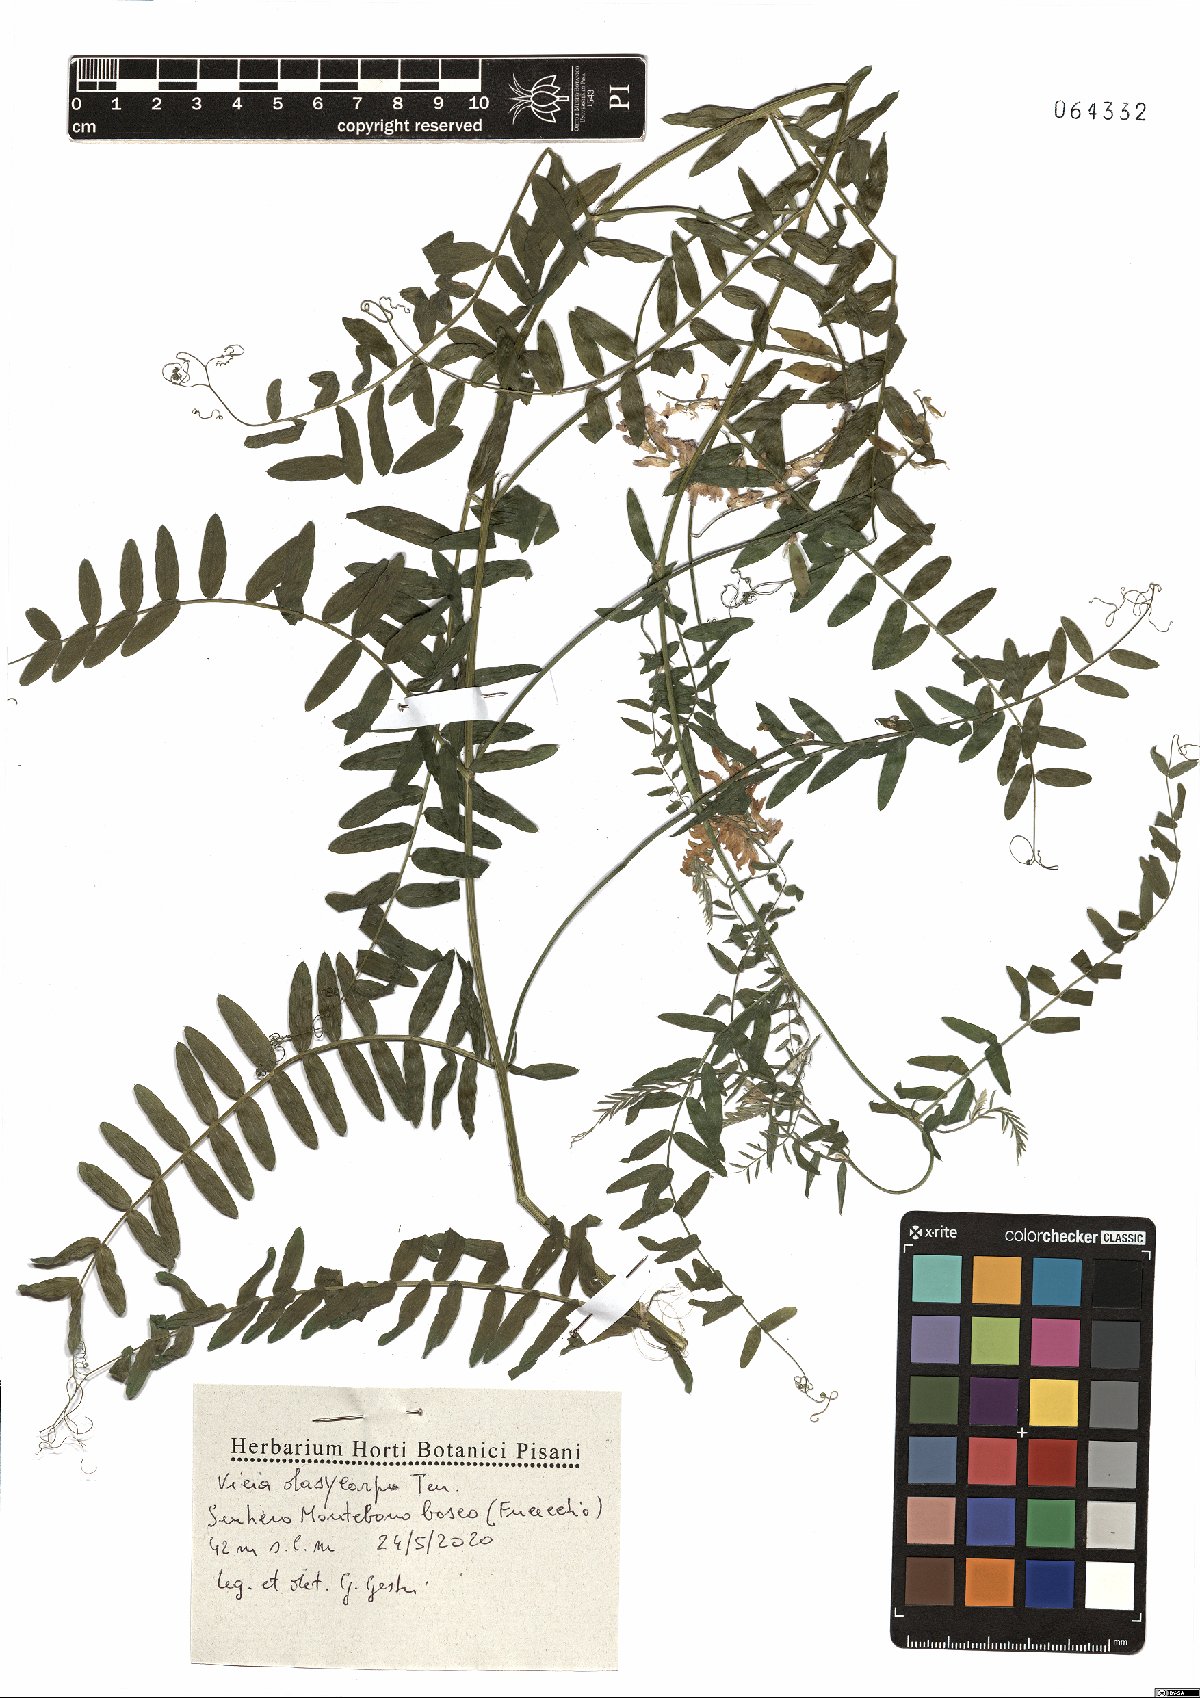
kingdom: Plantae
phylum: Tracheophyta
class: Magnoliopsida
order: Fabales
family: Fabaceae
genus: Vicia
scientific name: Vicia villosa
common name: Fodder vetch
